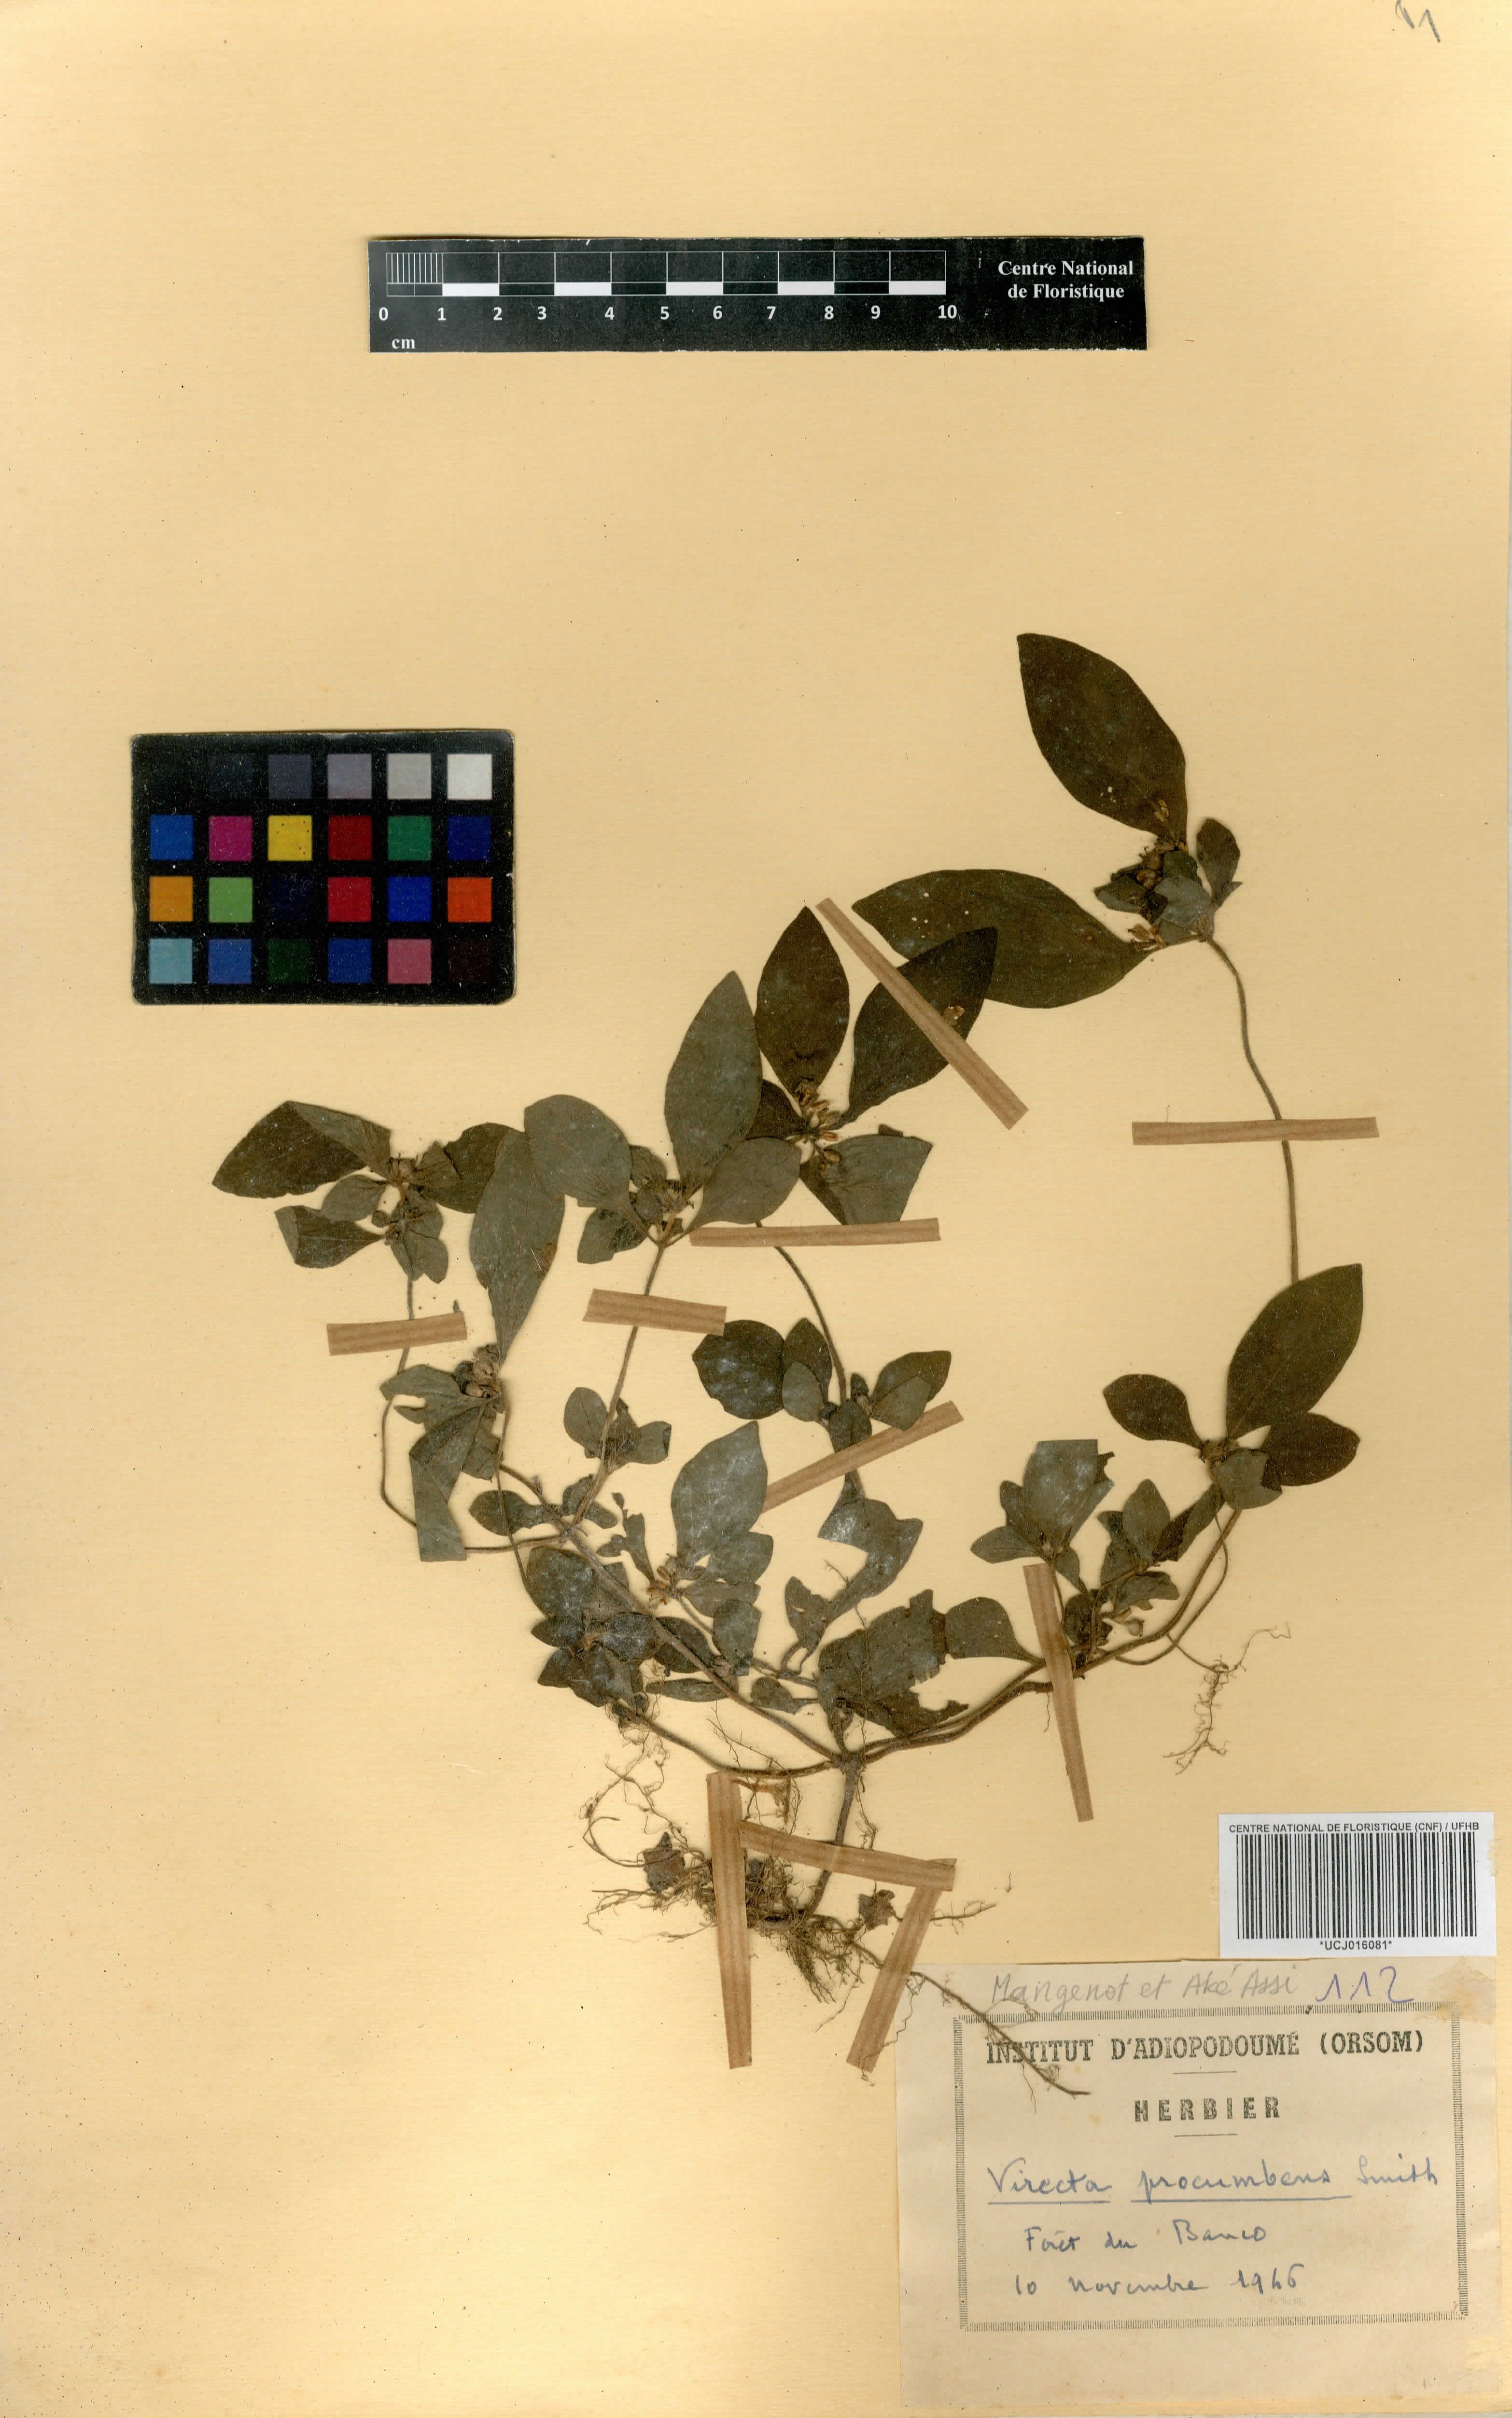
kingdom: Plantae
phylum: Tracheophyta
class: Magnoliopsida
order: Gentianales
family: Rubiaceae
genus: Virectaria
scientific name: Virectaria procumbens
